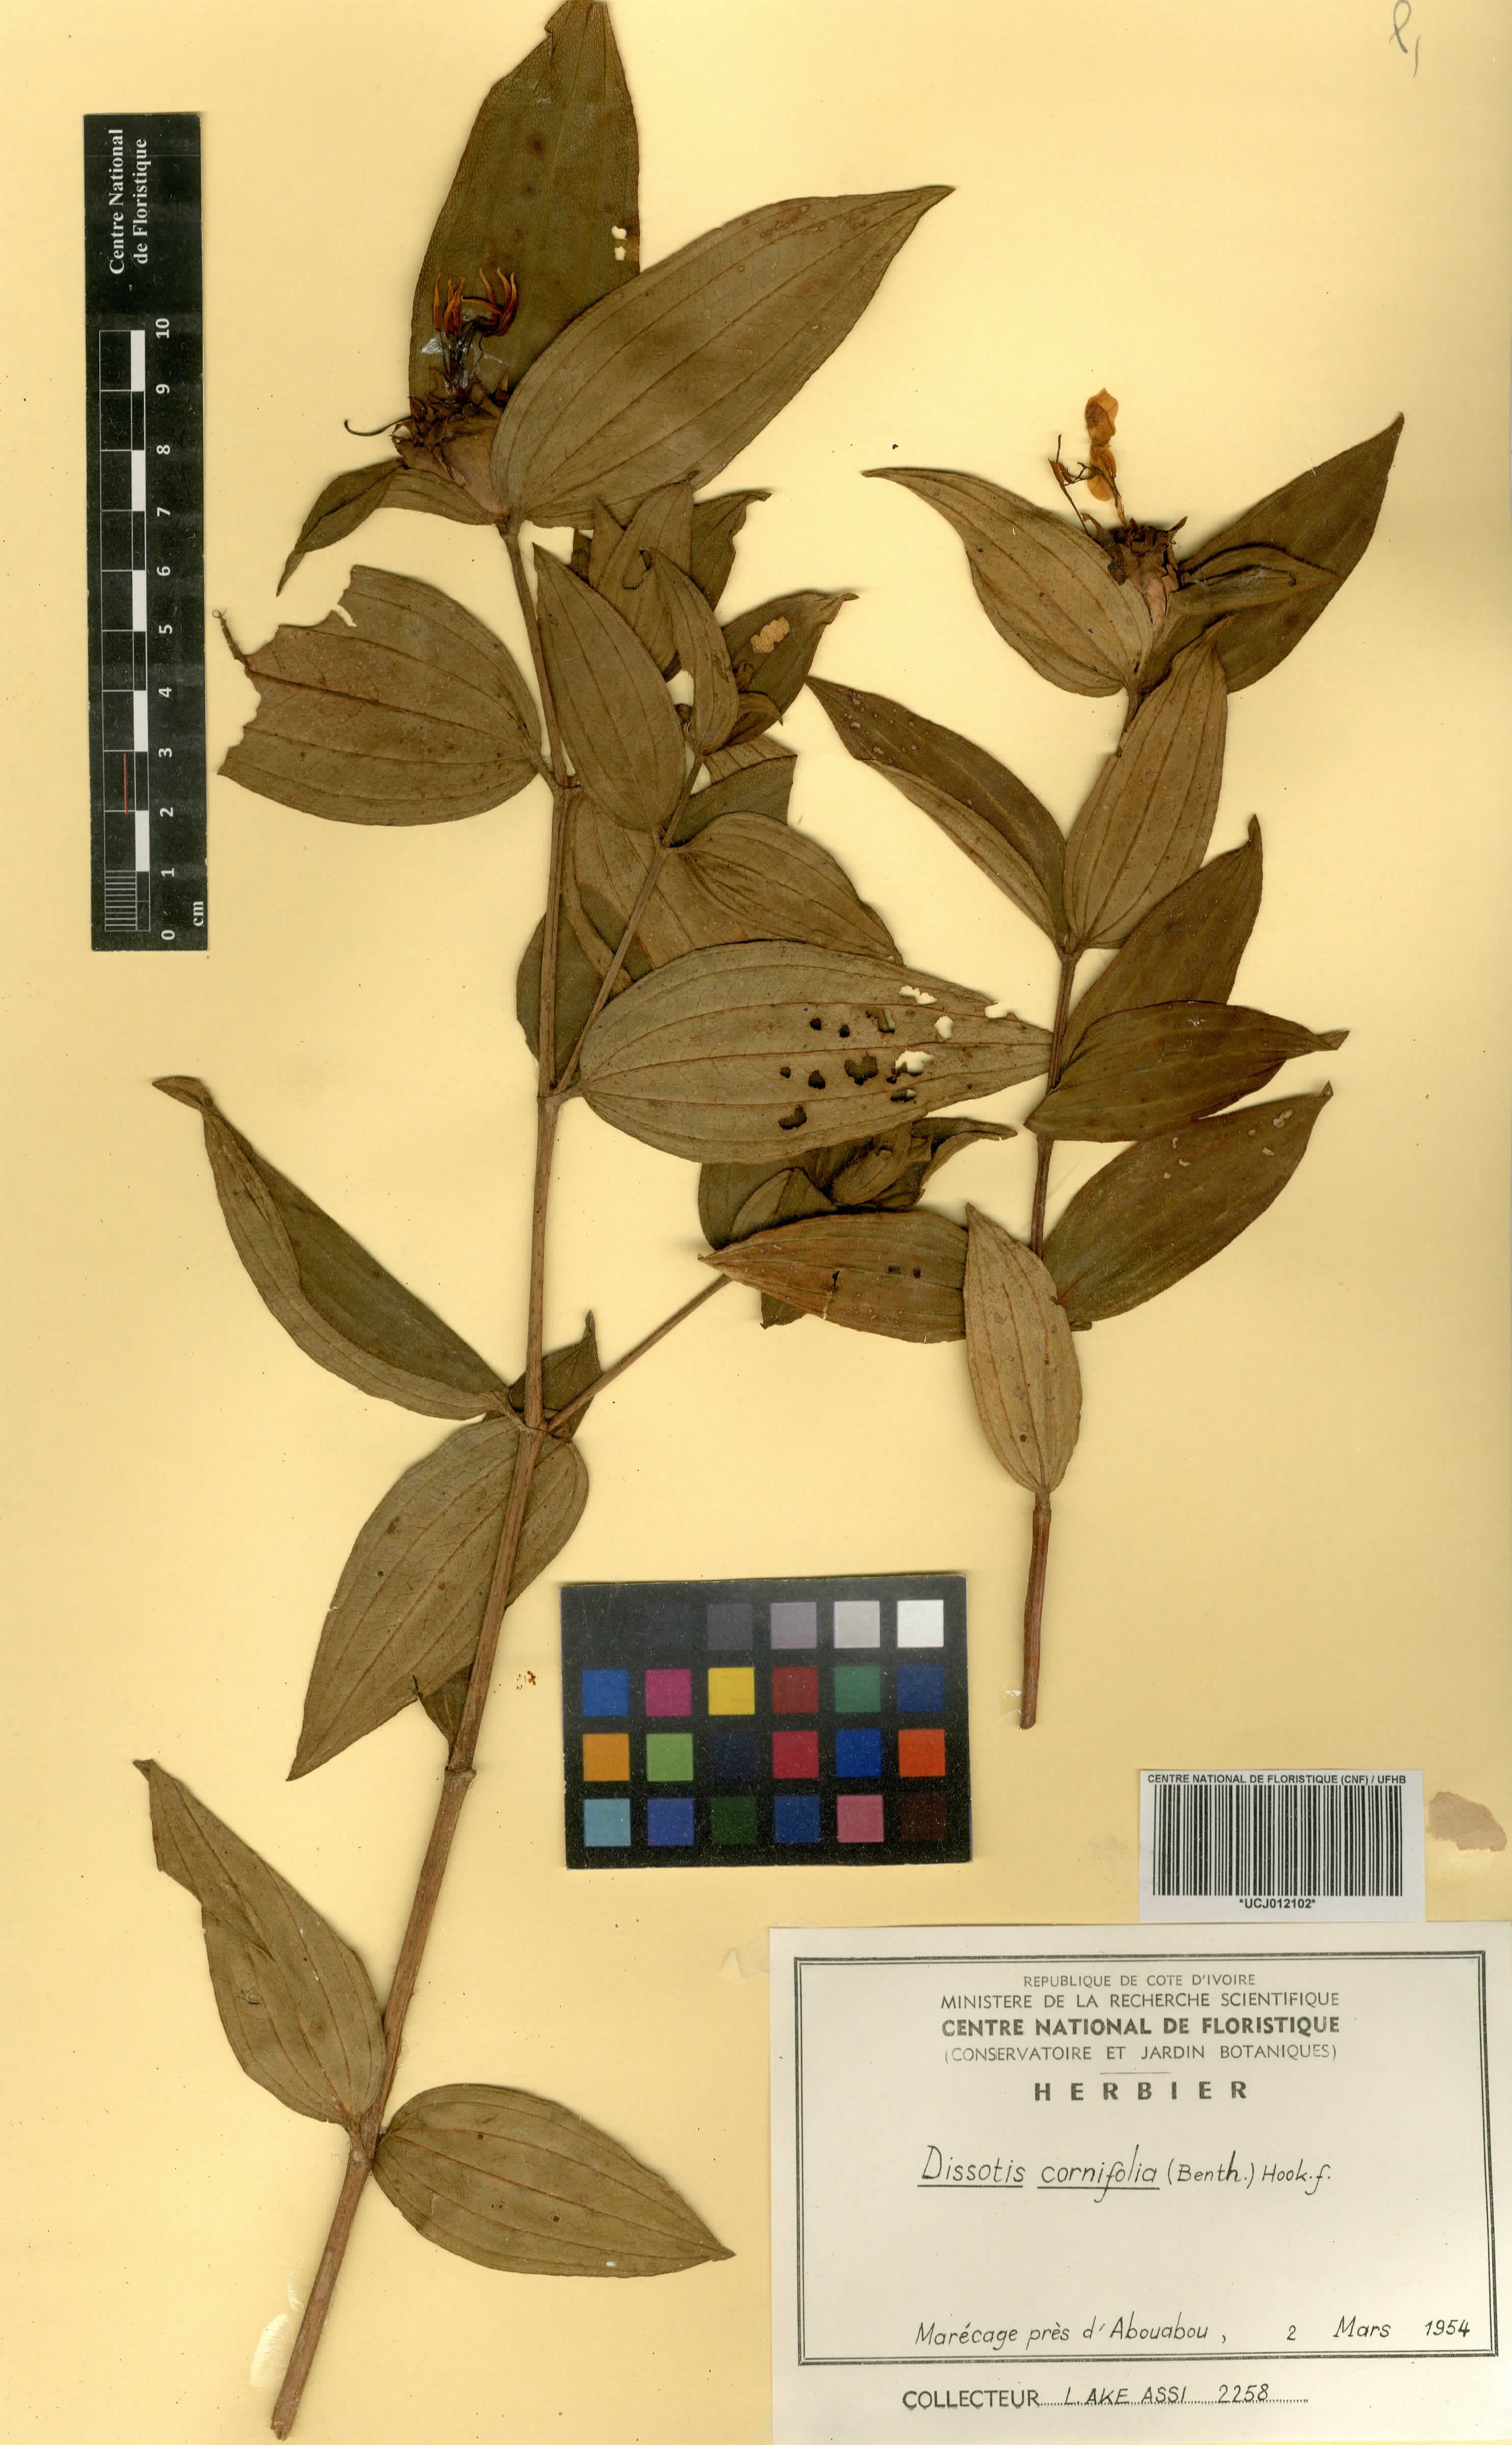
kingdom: Plantae
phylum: Tracheophyta
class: Magnoliopsida
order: Myrtales
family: Melastomataceae
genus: Melastomastrum
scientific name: Melastomastrum cornifolium
